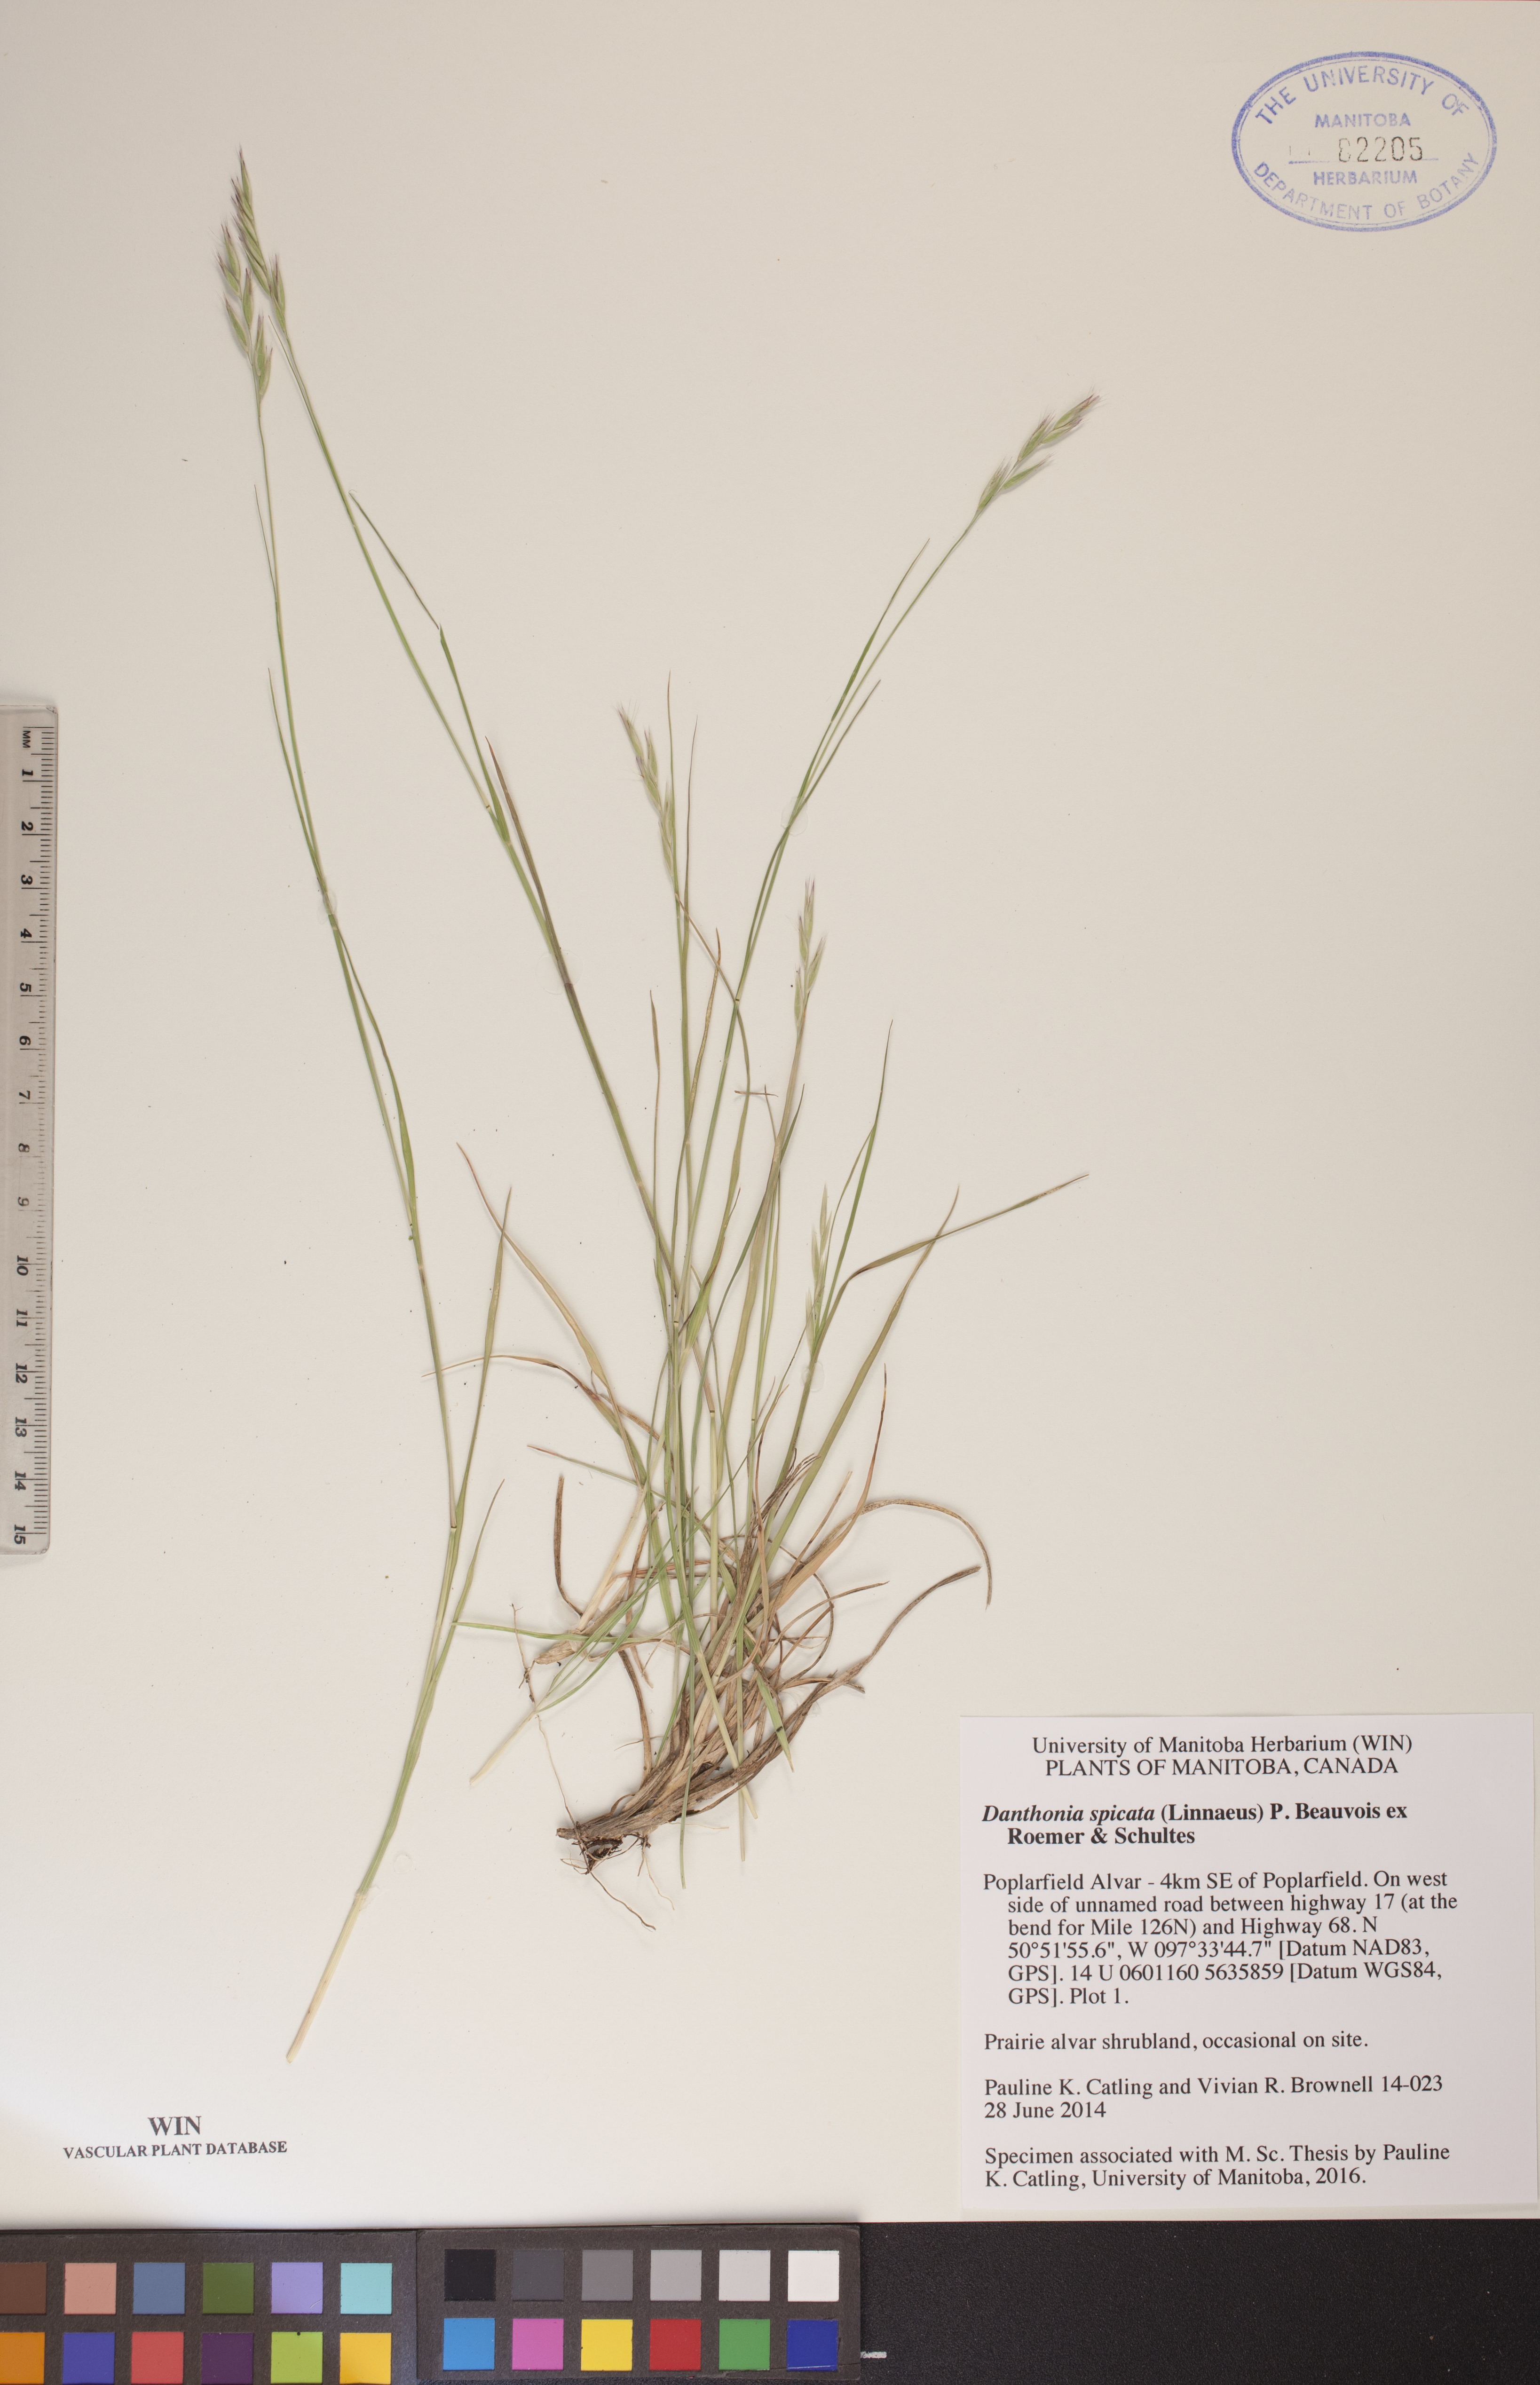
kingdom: Plantae
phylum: Tracheophyta
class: Liliopsida
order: Poales
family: Poaceae
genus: Danthonia
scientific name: Danthonia spicata
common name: Common wild oatgrass
